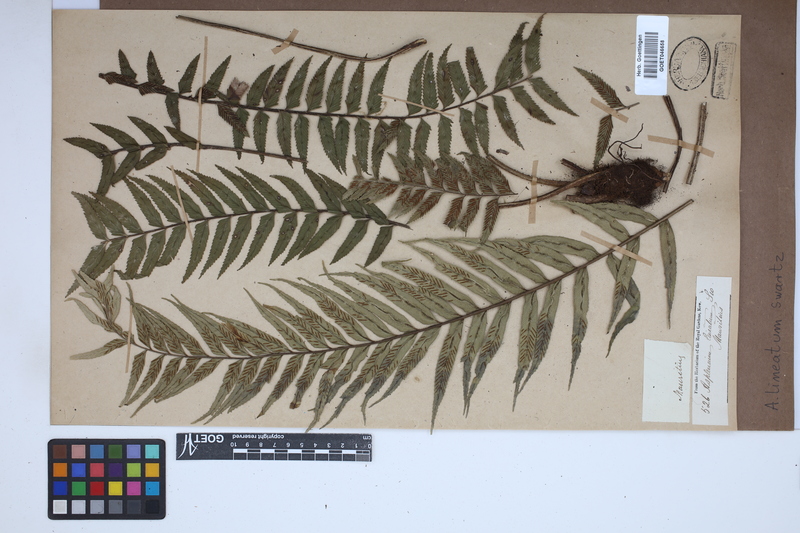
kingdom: Plantae
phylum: Tracheophyta
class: Polypodiopsida
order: Polypodiales
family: Aspleniaceae
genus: Asplenium
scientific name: Asplenium daucifolium
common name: Mauritius spleenwort
